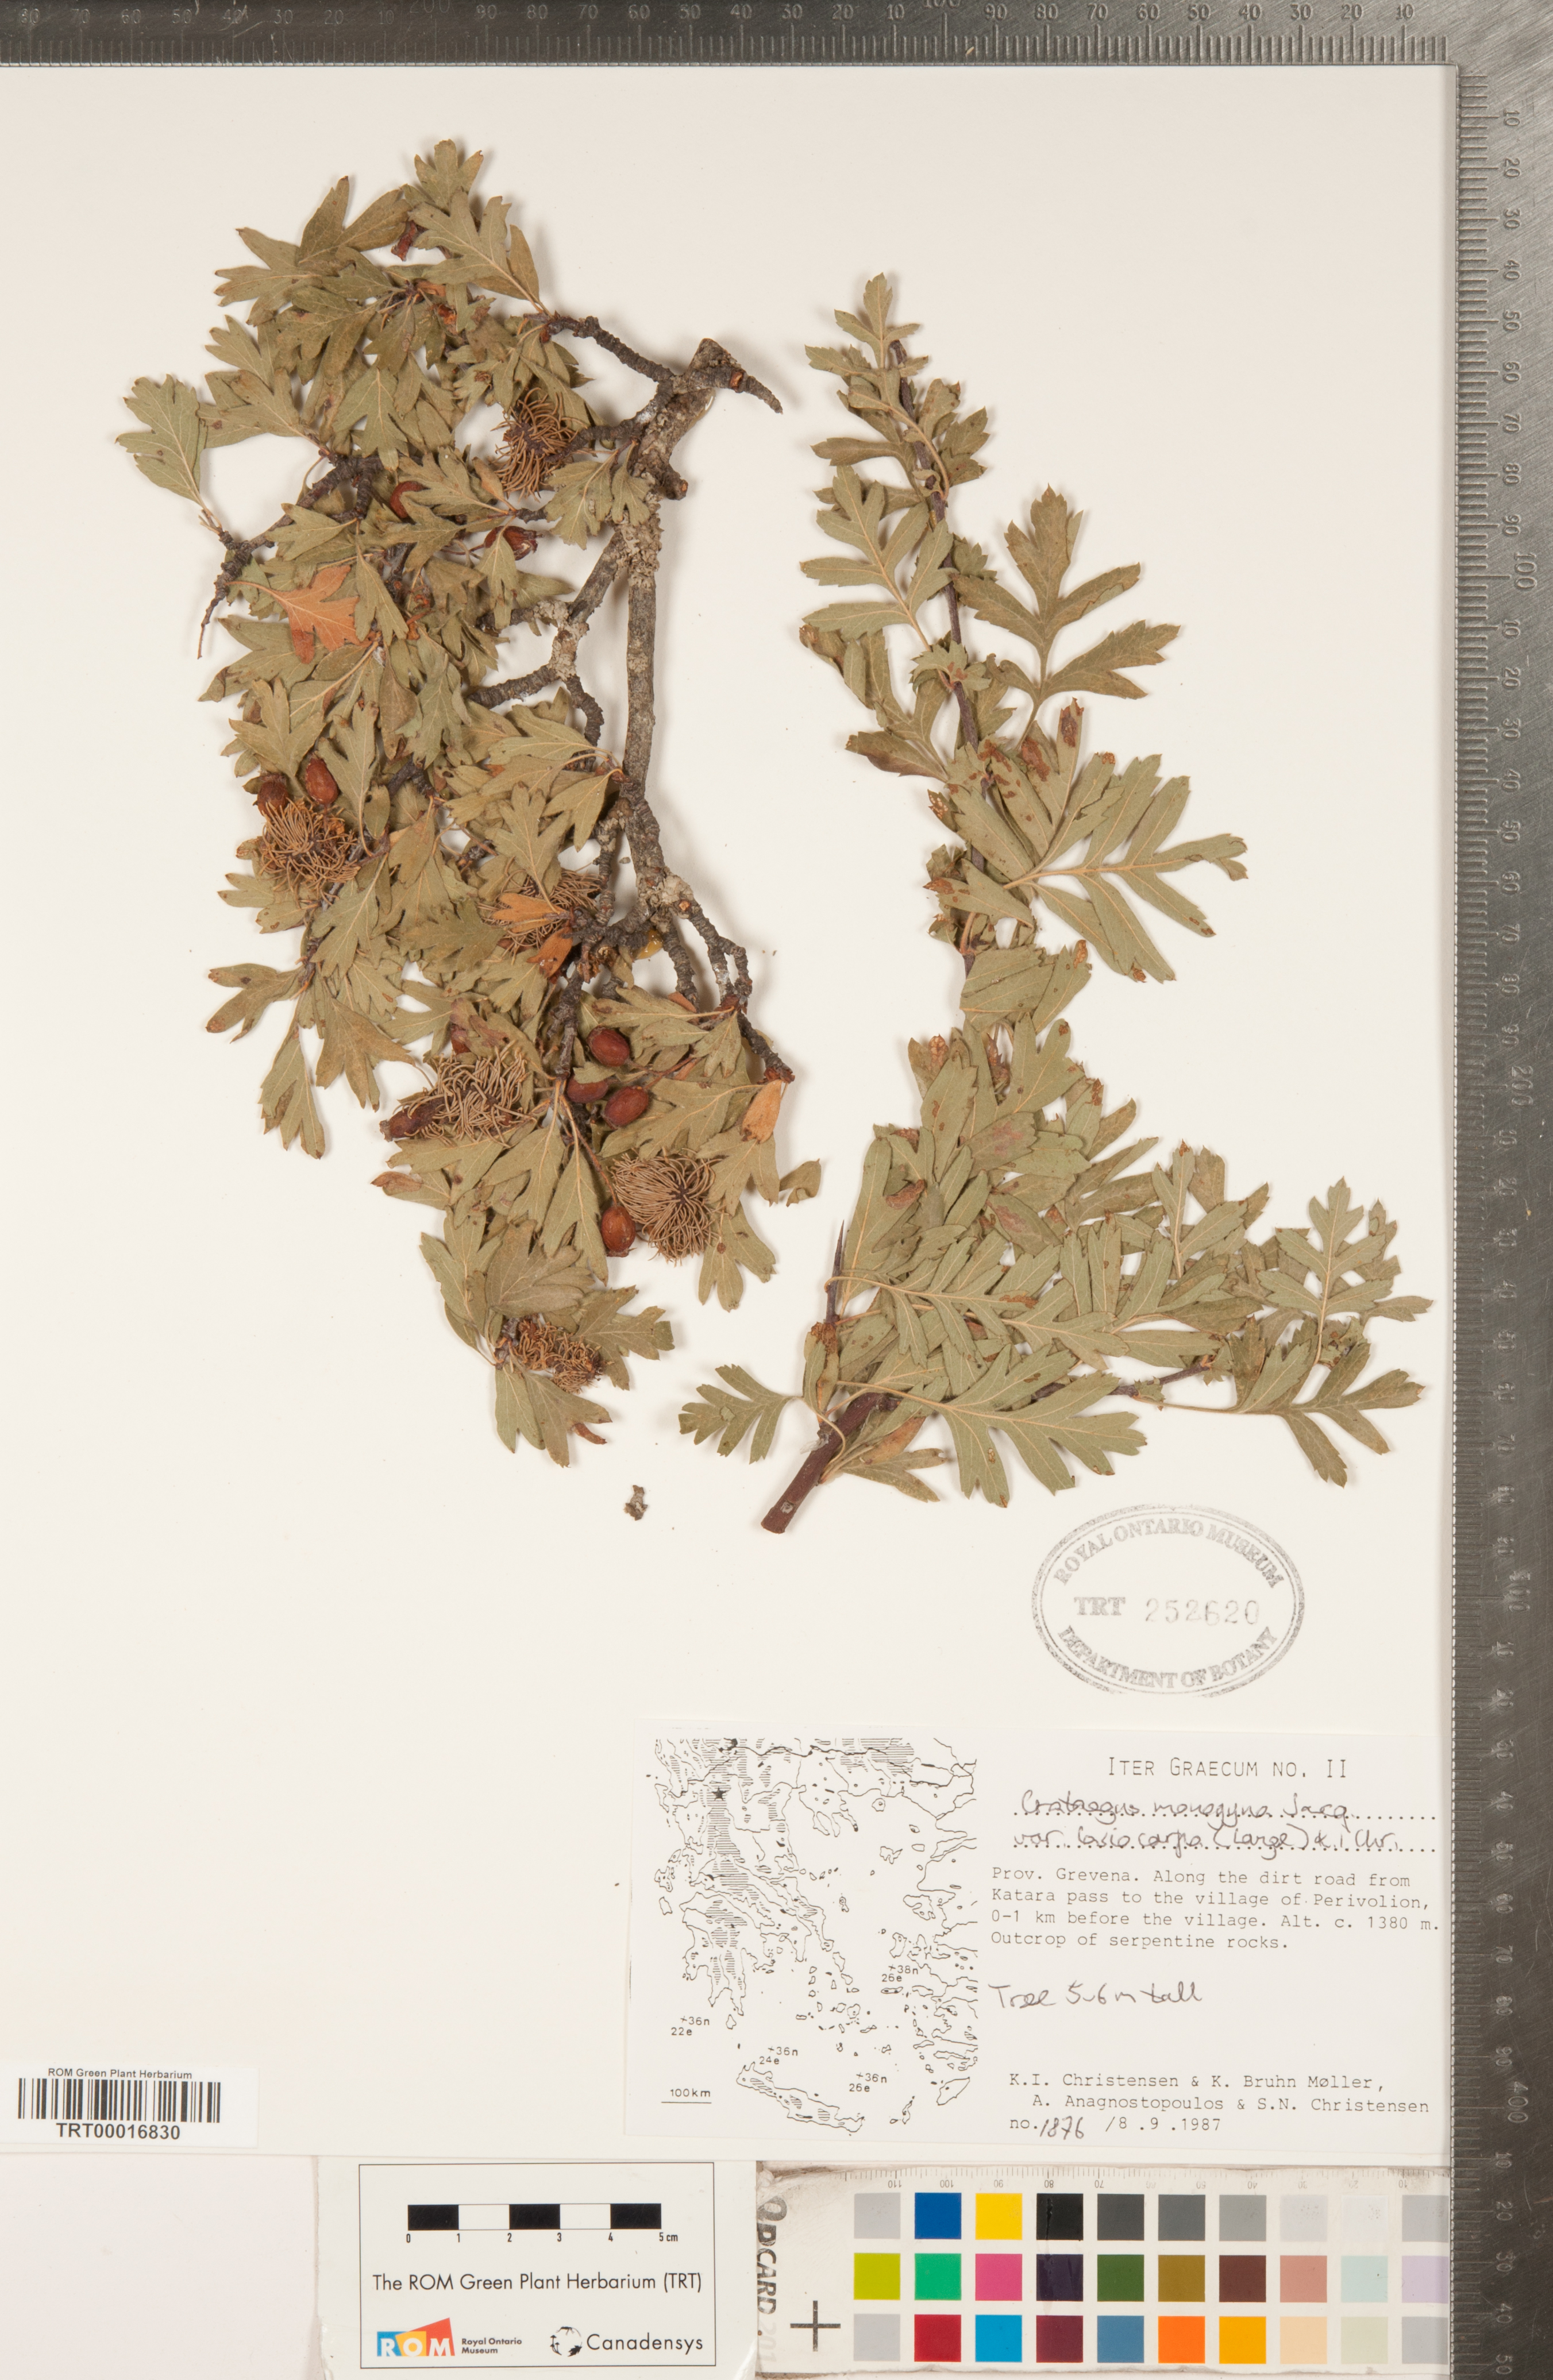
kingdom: Plantae
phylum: Tracheophyta
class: Magnoliopsida
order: Rosales
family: Rosaceae
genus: Crataegus
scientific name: Crataegus laciniata
